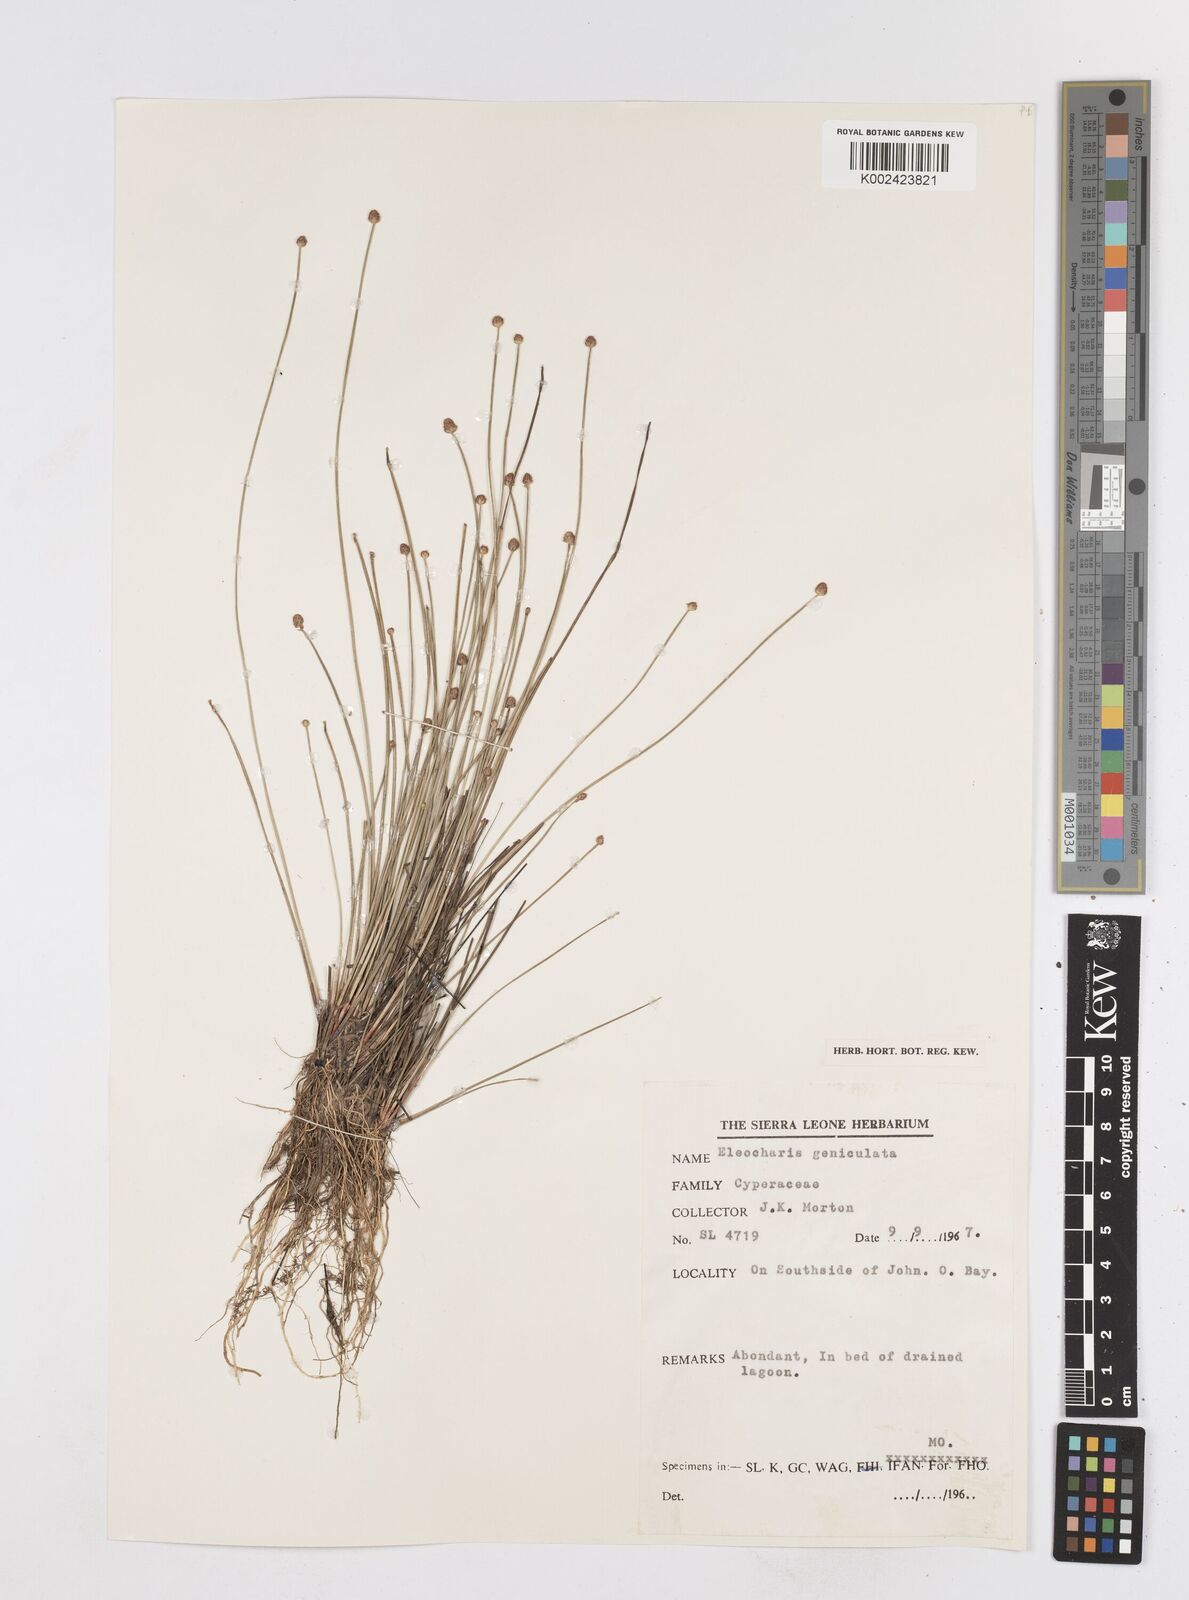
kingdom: Plantae
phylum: Tracheophyta
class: Liliopsida
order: Poales
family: Cyperaceae
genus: Eleocharis
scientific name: Eleocharis geniculata
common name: Canada spikesedge
